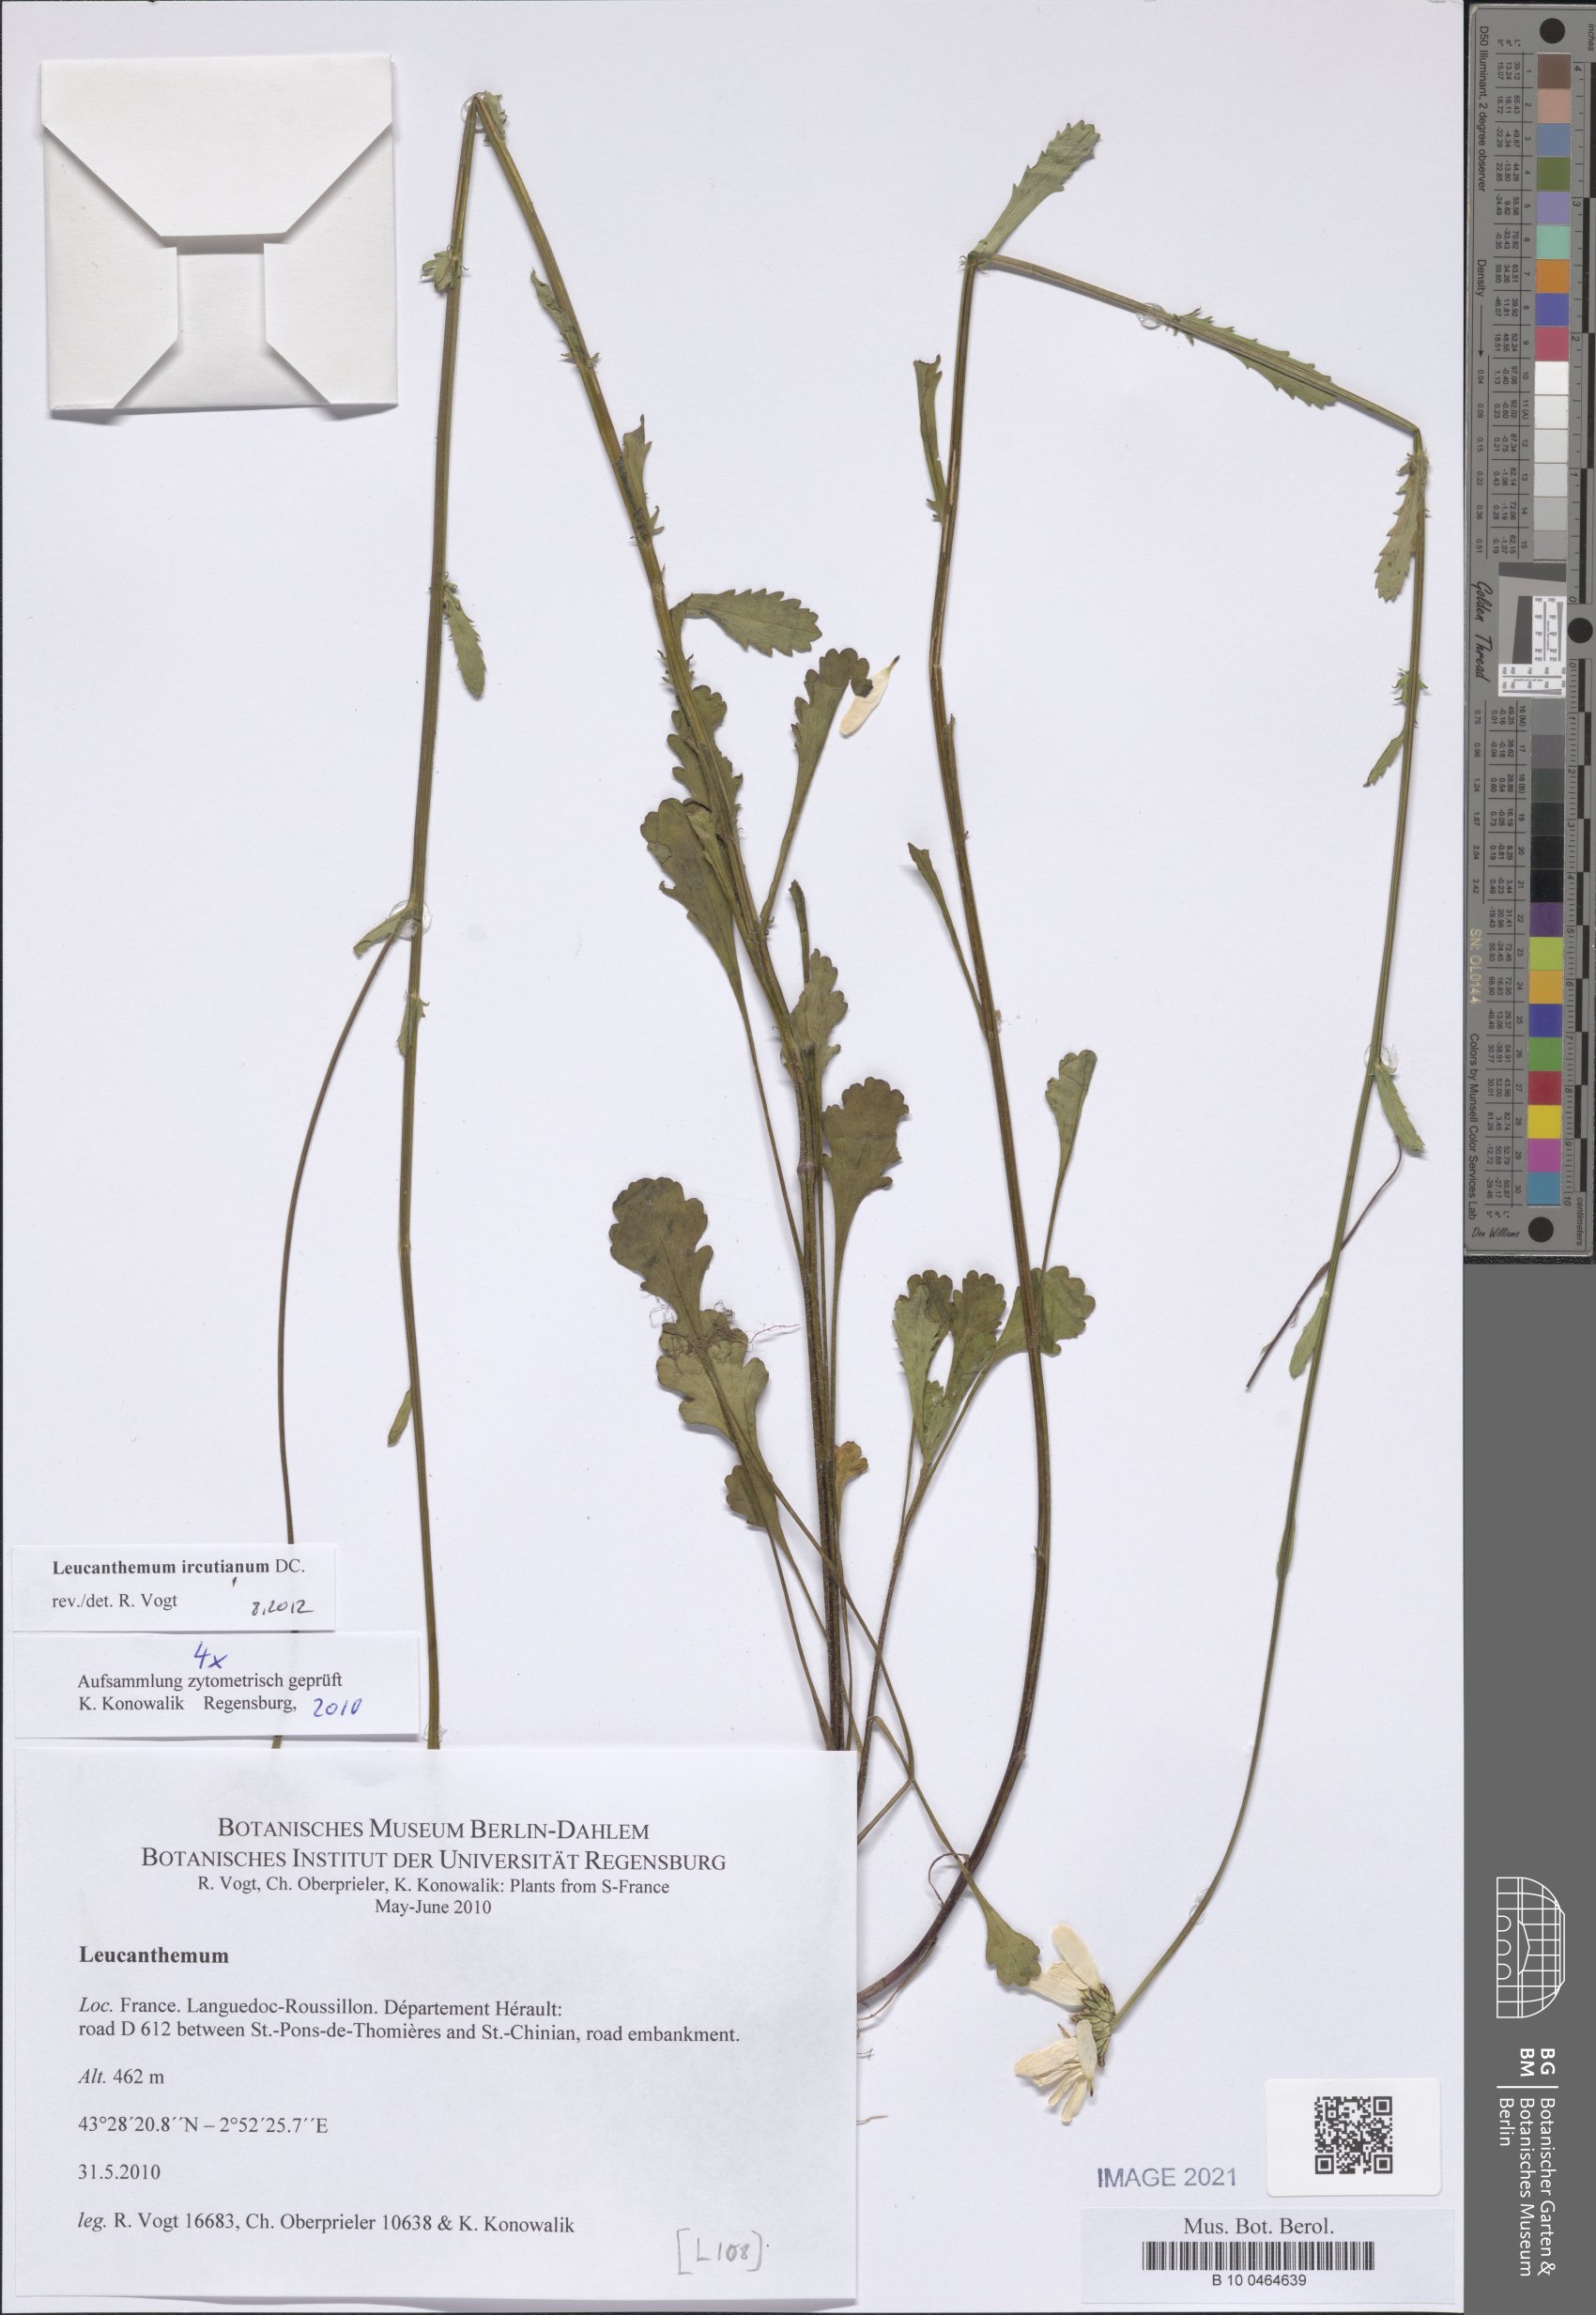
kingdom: Plantae
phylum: Tracheophyta
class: Magnoliopsida
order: Asterales
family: Asteraceae
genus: Leucanthemum
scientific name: Leucanthemum ircutianum
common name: Daisy
